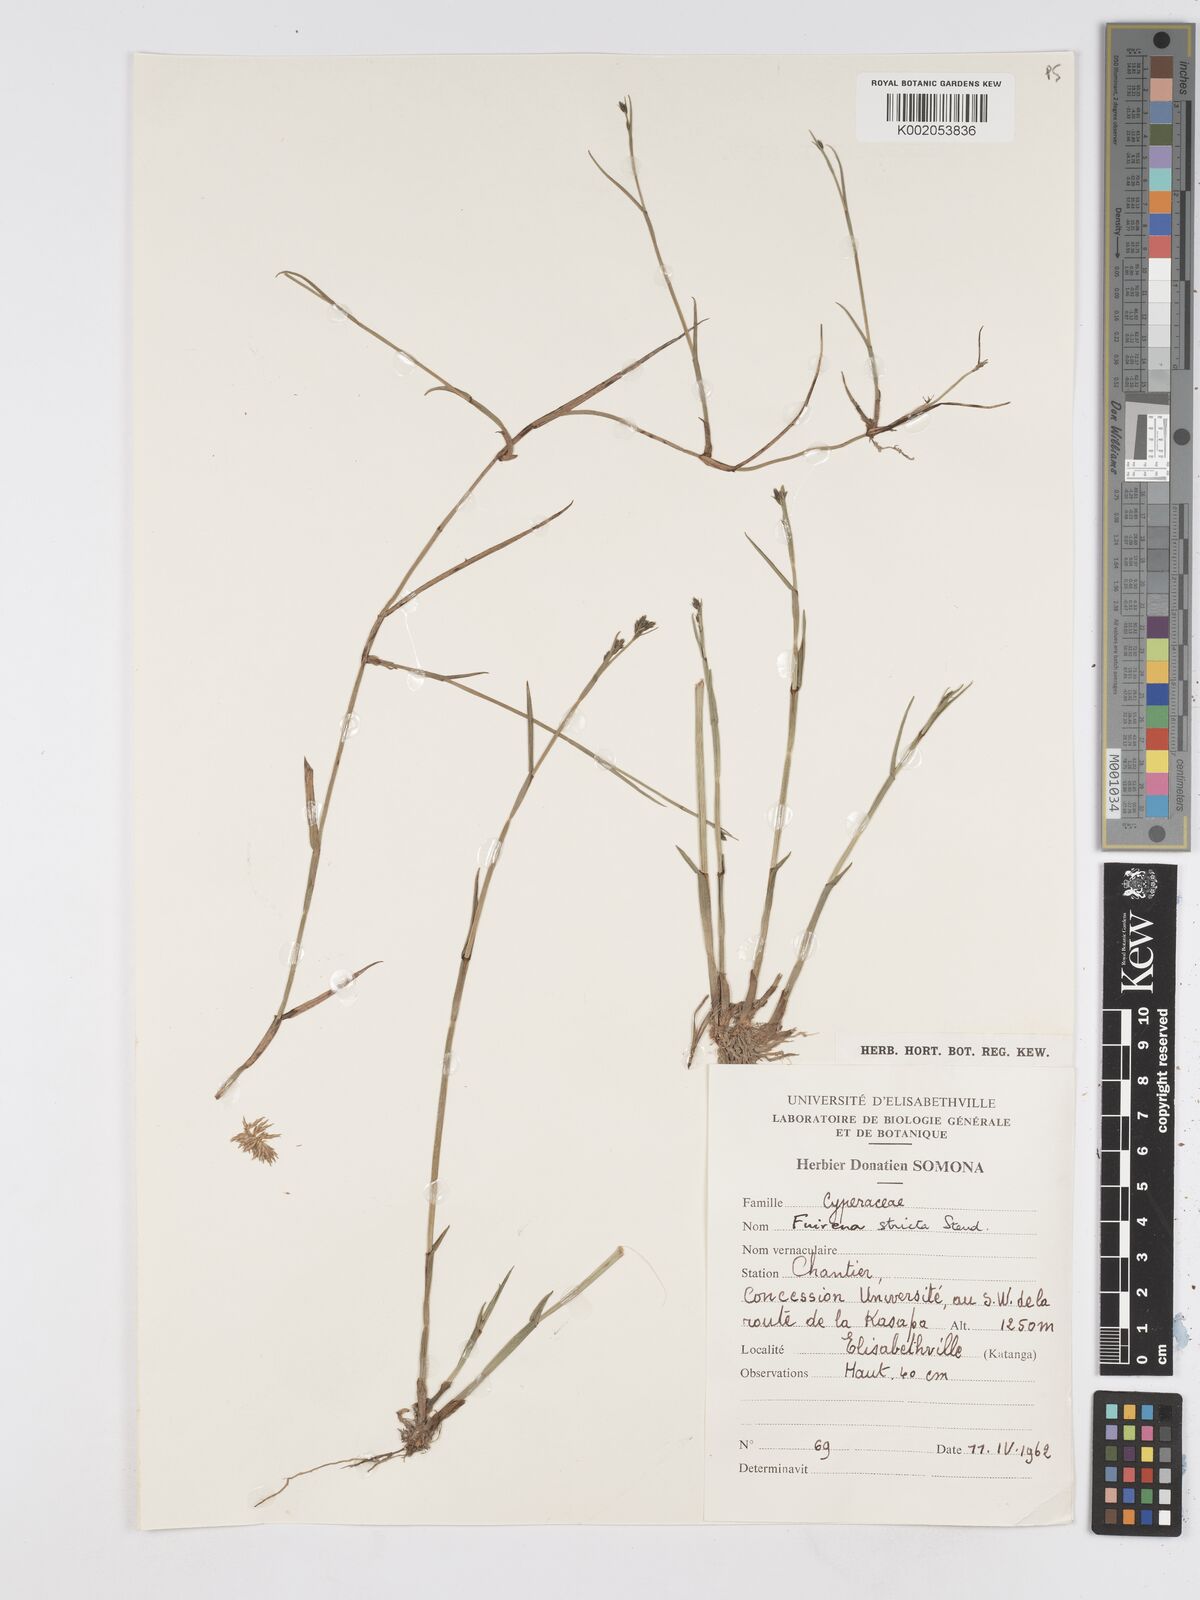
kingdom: Plantae
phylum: Tracheophyta
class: Liliopsida
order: Poales
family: Cyperaceae
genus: Fuirena
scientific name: Fuirena stricta
